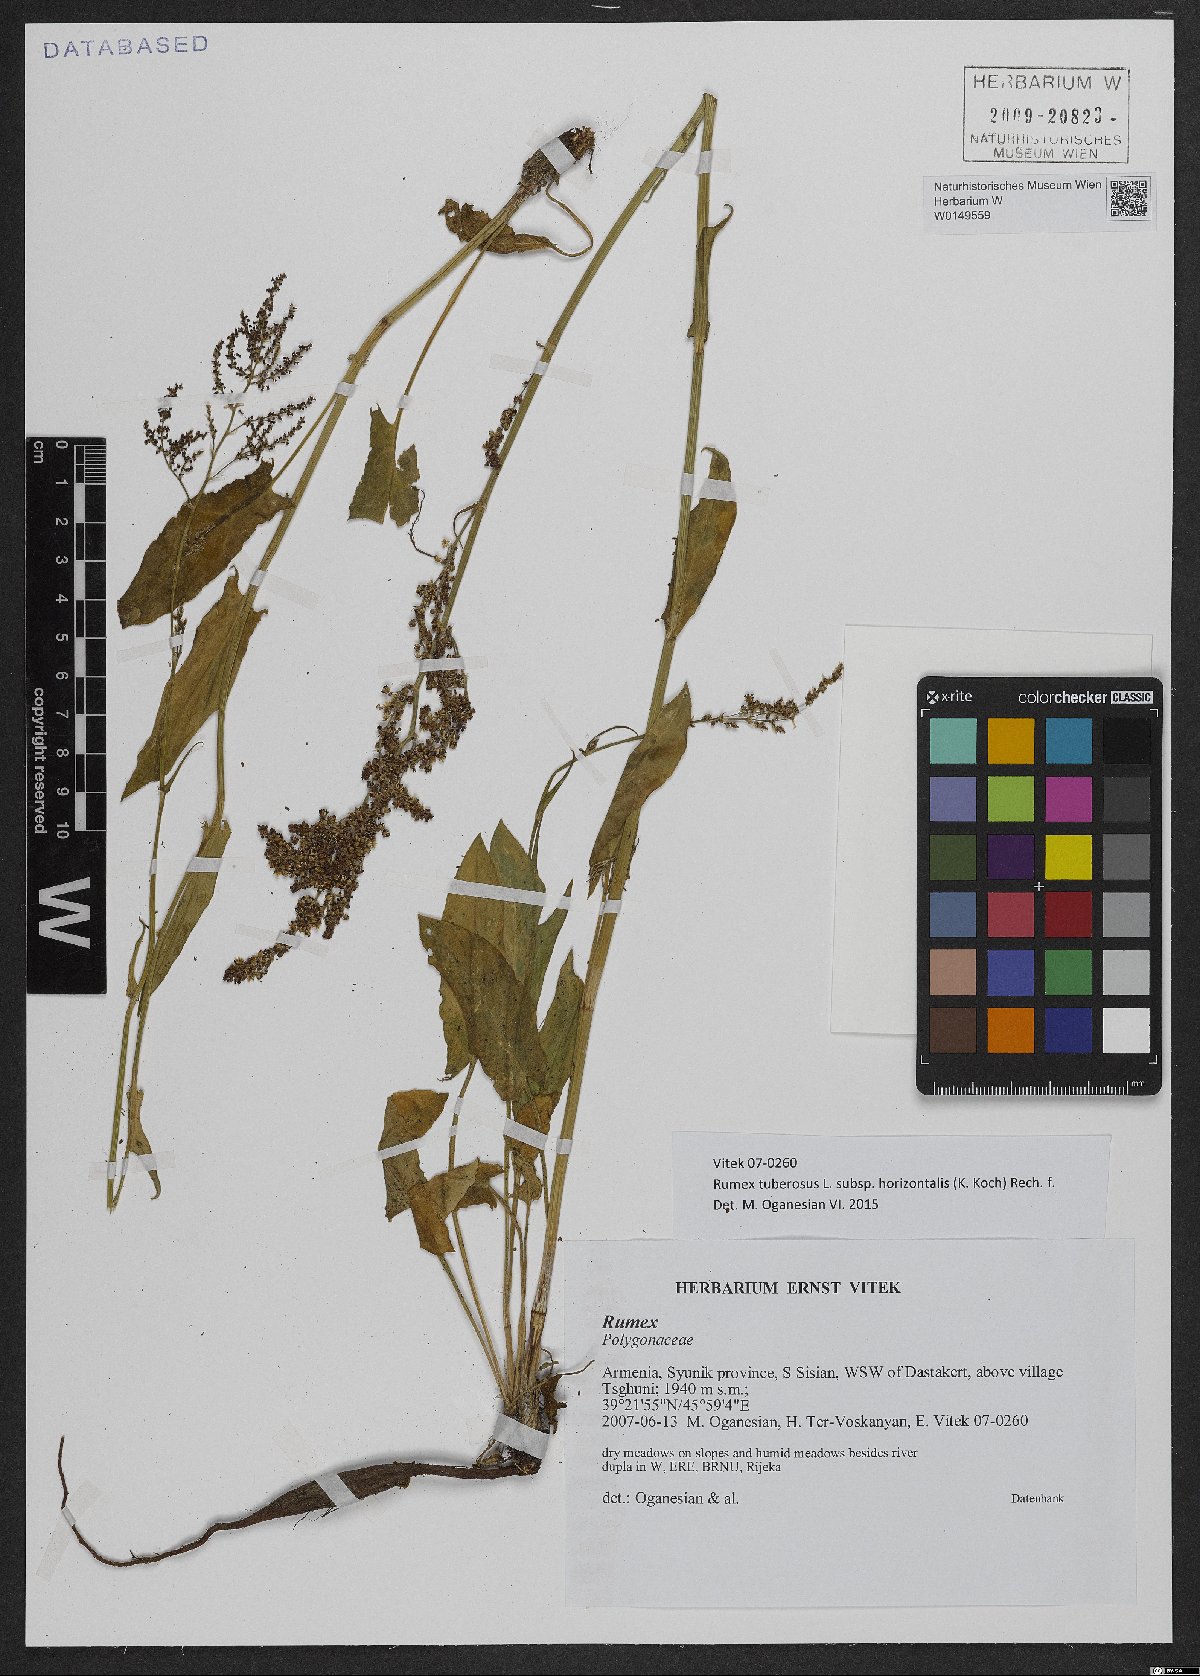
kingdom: Plantae
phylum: Tracheophyta
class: Magnoliopsida
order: Caryophyllales
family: Polygonaceae
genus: Rumex
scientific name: Rumex tuberosus
